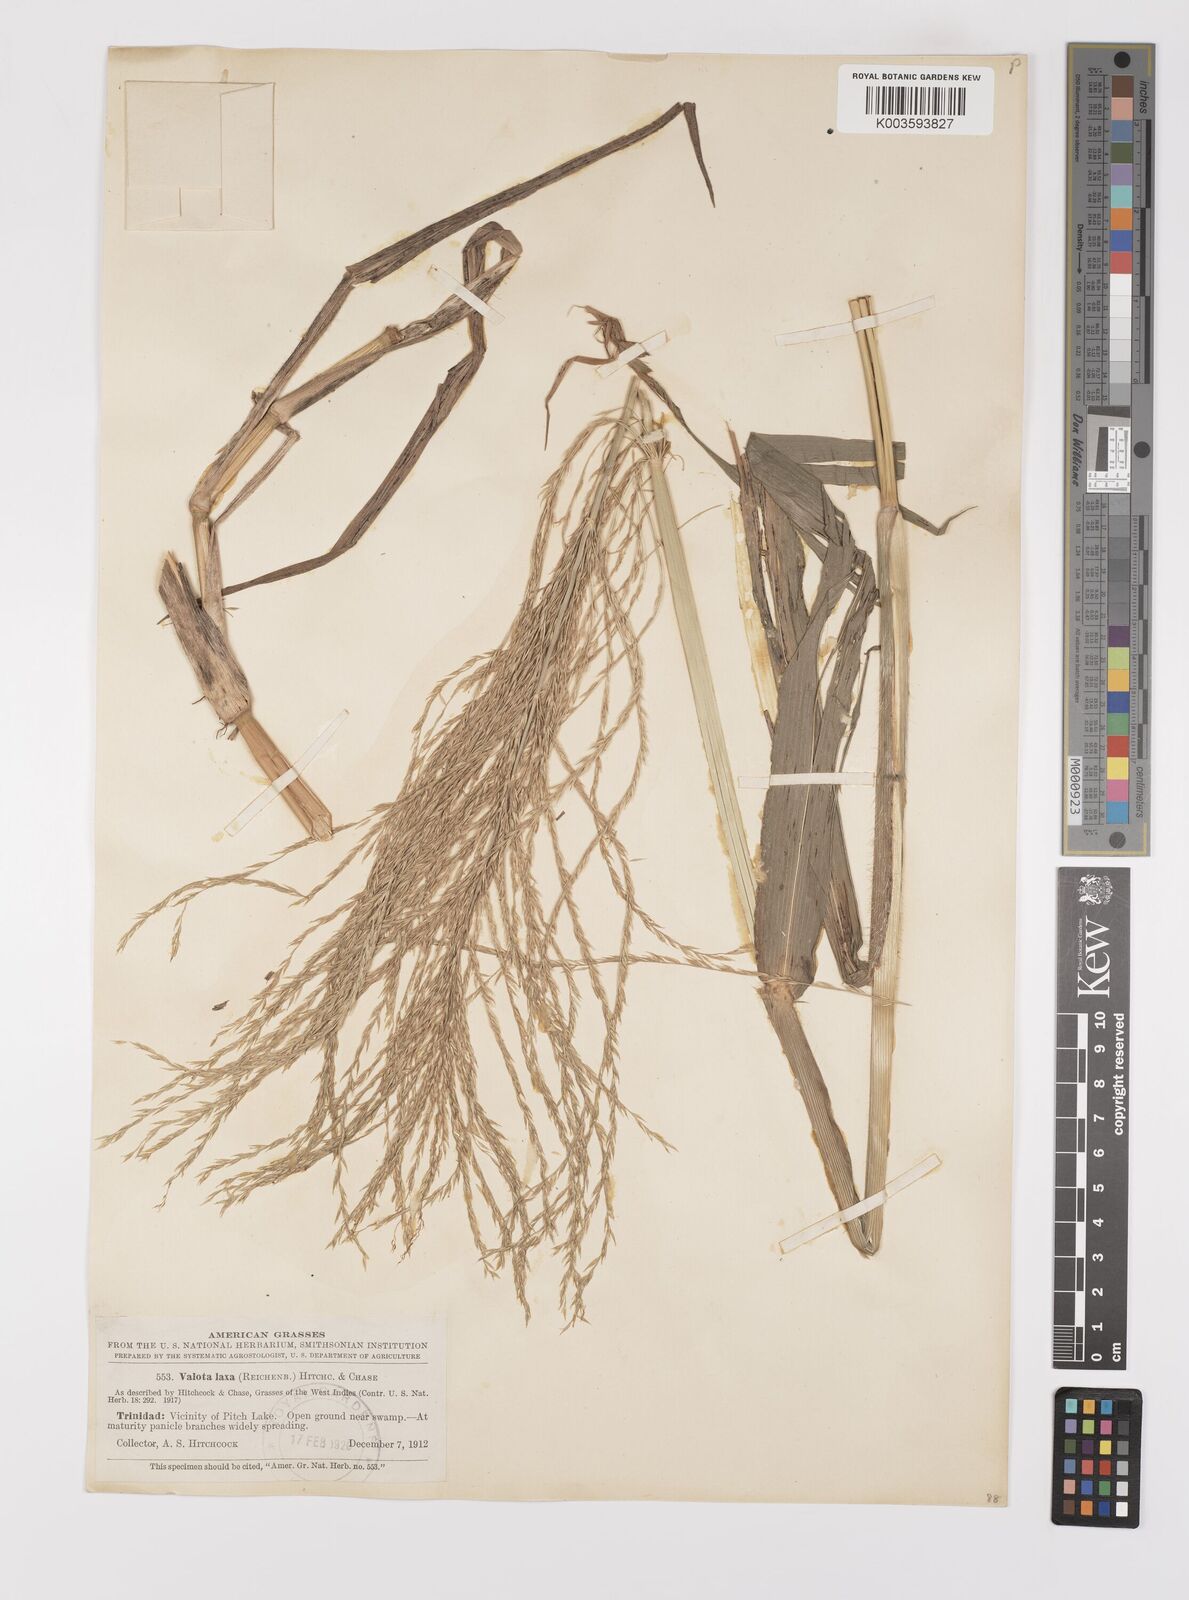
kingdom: Plantae
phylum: Tracheophyta
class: Liliopsida
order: Poales
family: Poaceae
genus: Digitaria
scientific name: Digitaria laxa
